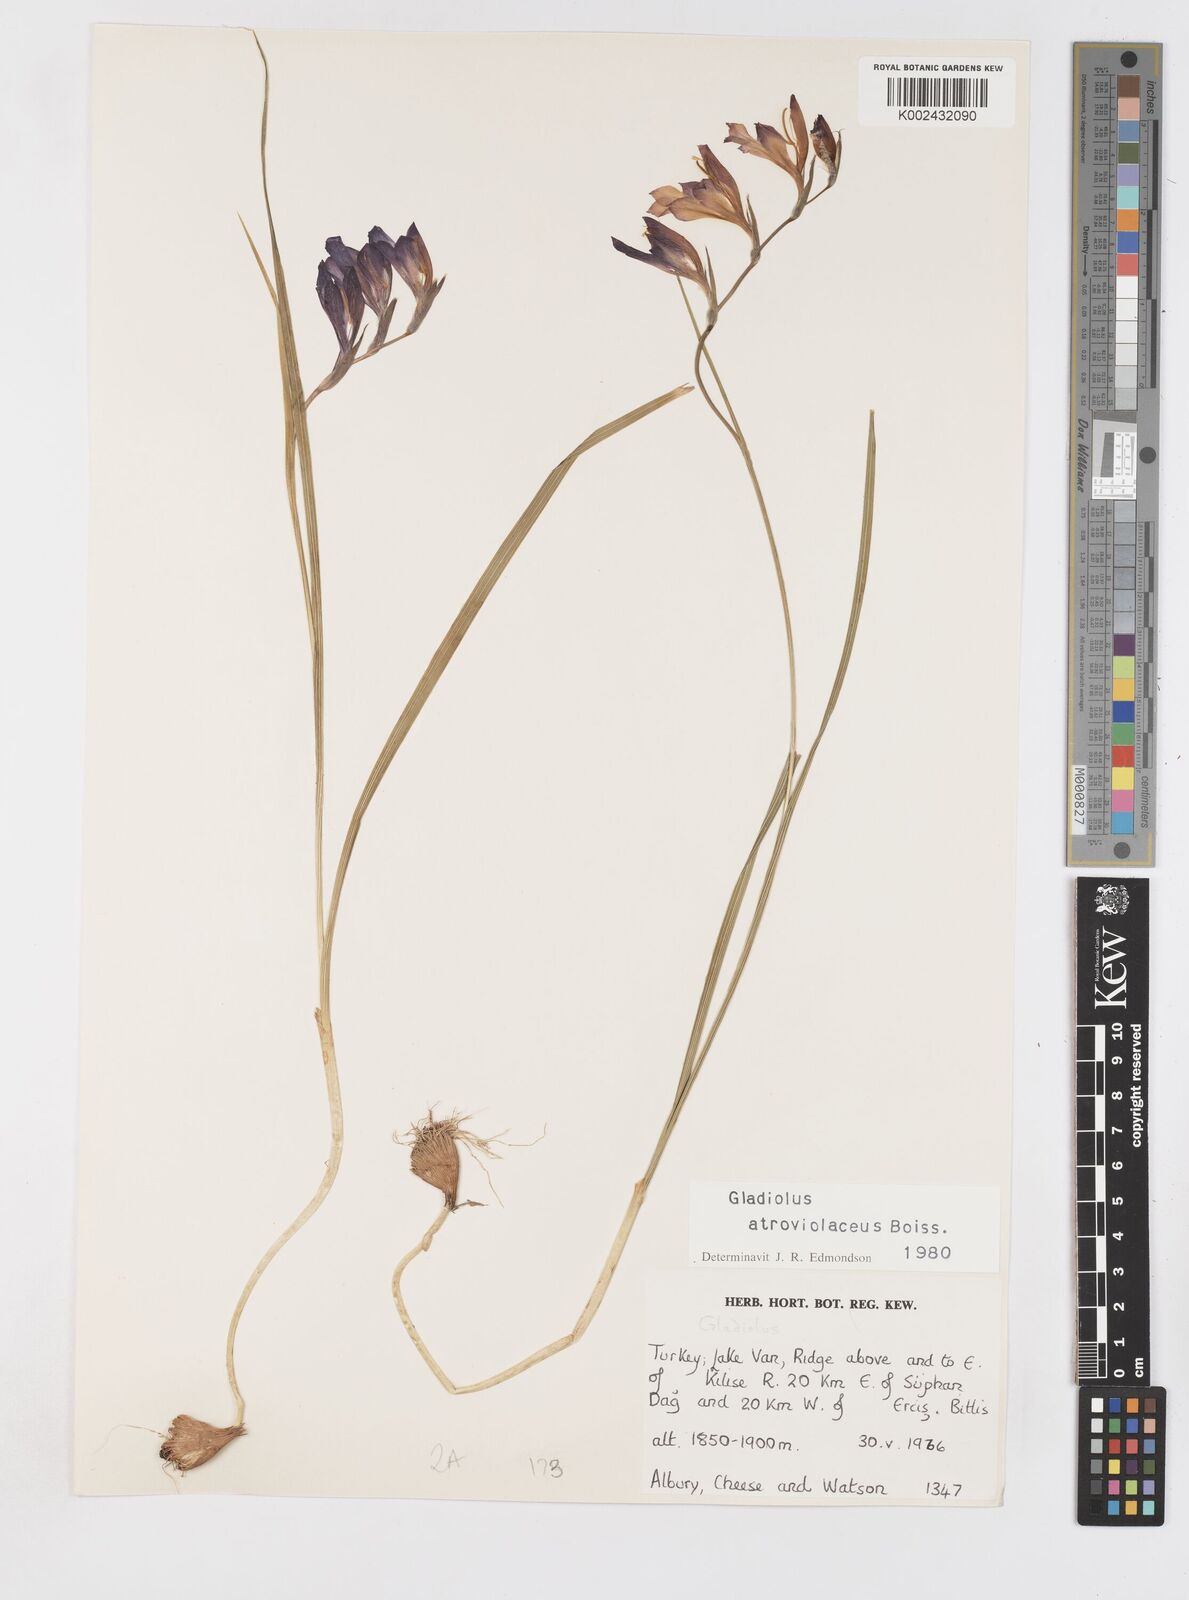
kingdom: Plantae
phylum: Tracheophyta
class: Liliopsida
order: Asparagales
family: Iridaceae
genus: Gladiolus
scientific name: Gladiolus atroviolaceus
